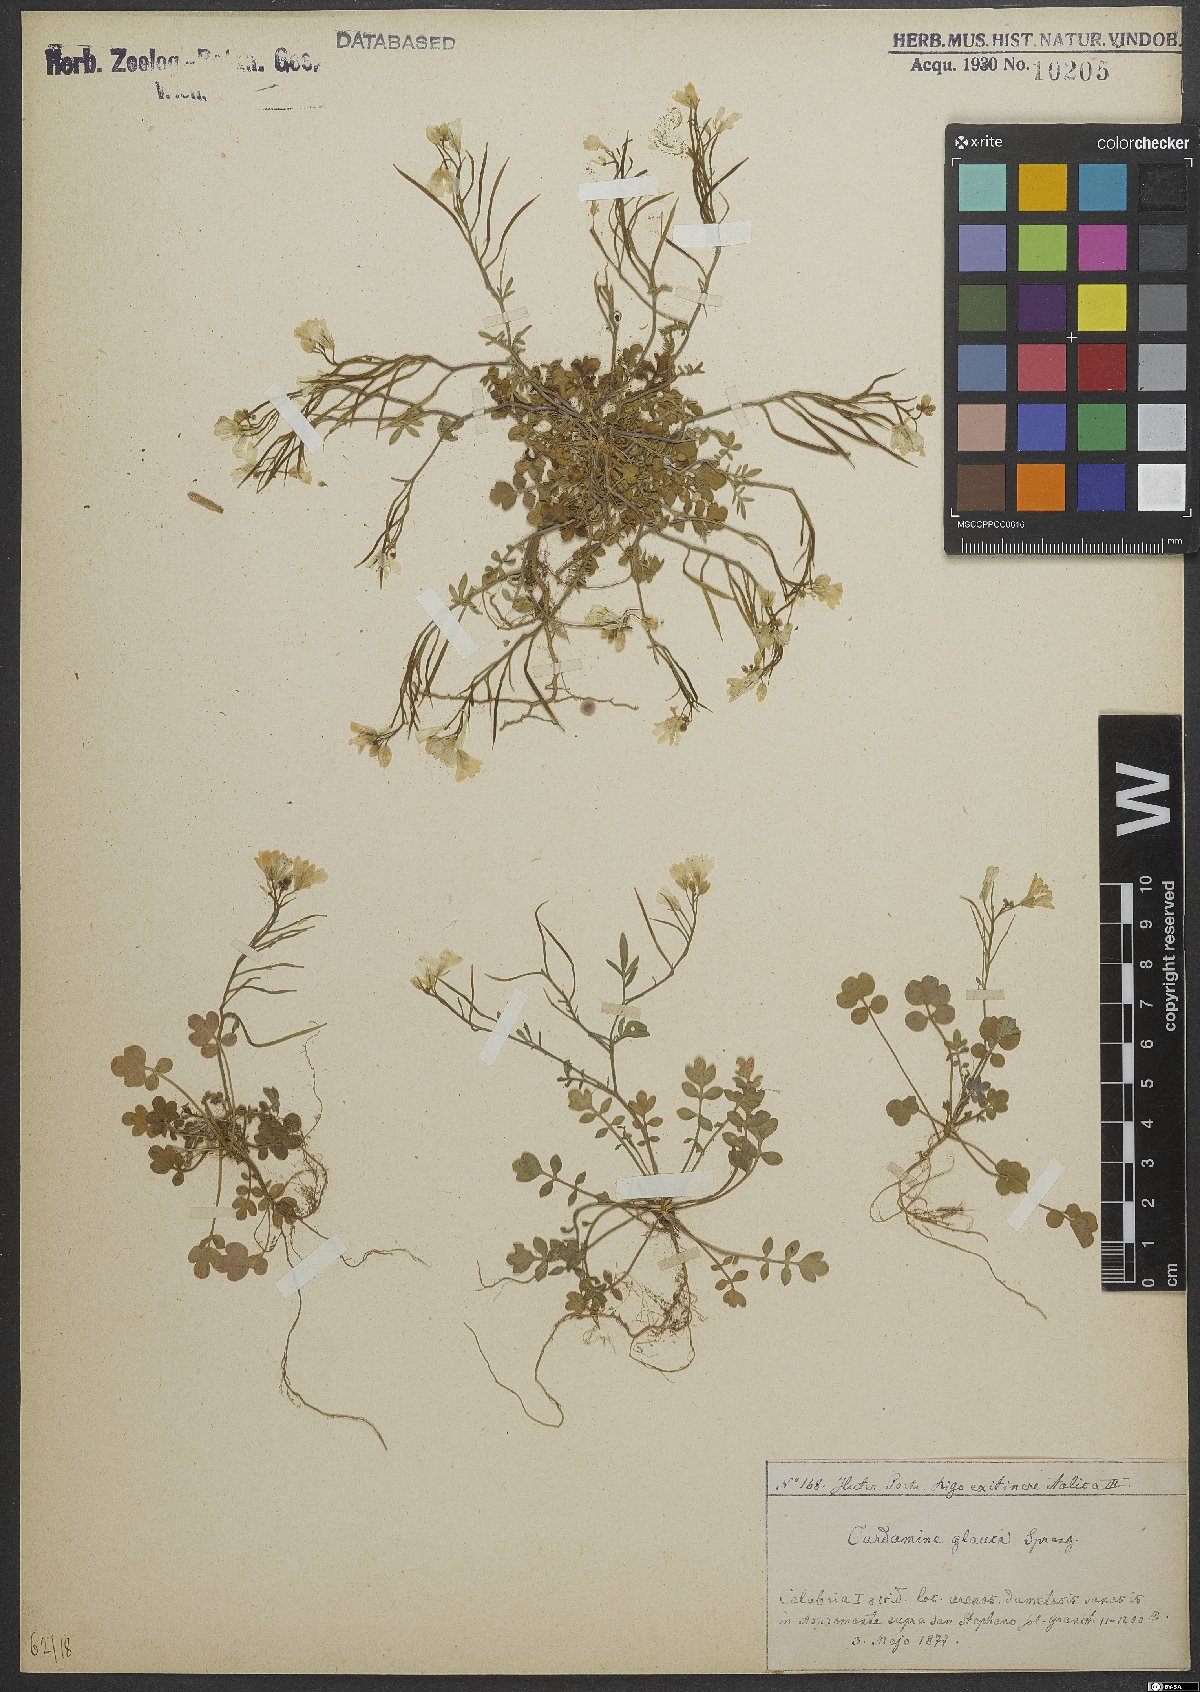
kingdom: Plantae
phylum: Tracheophyta
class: Magnoliopsida
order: Brassicales
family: Brassicaceae
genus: Cardamine
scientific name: Cardamine glauca
